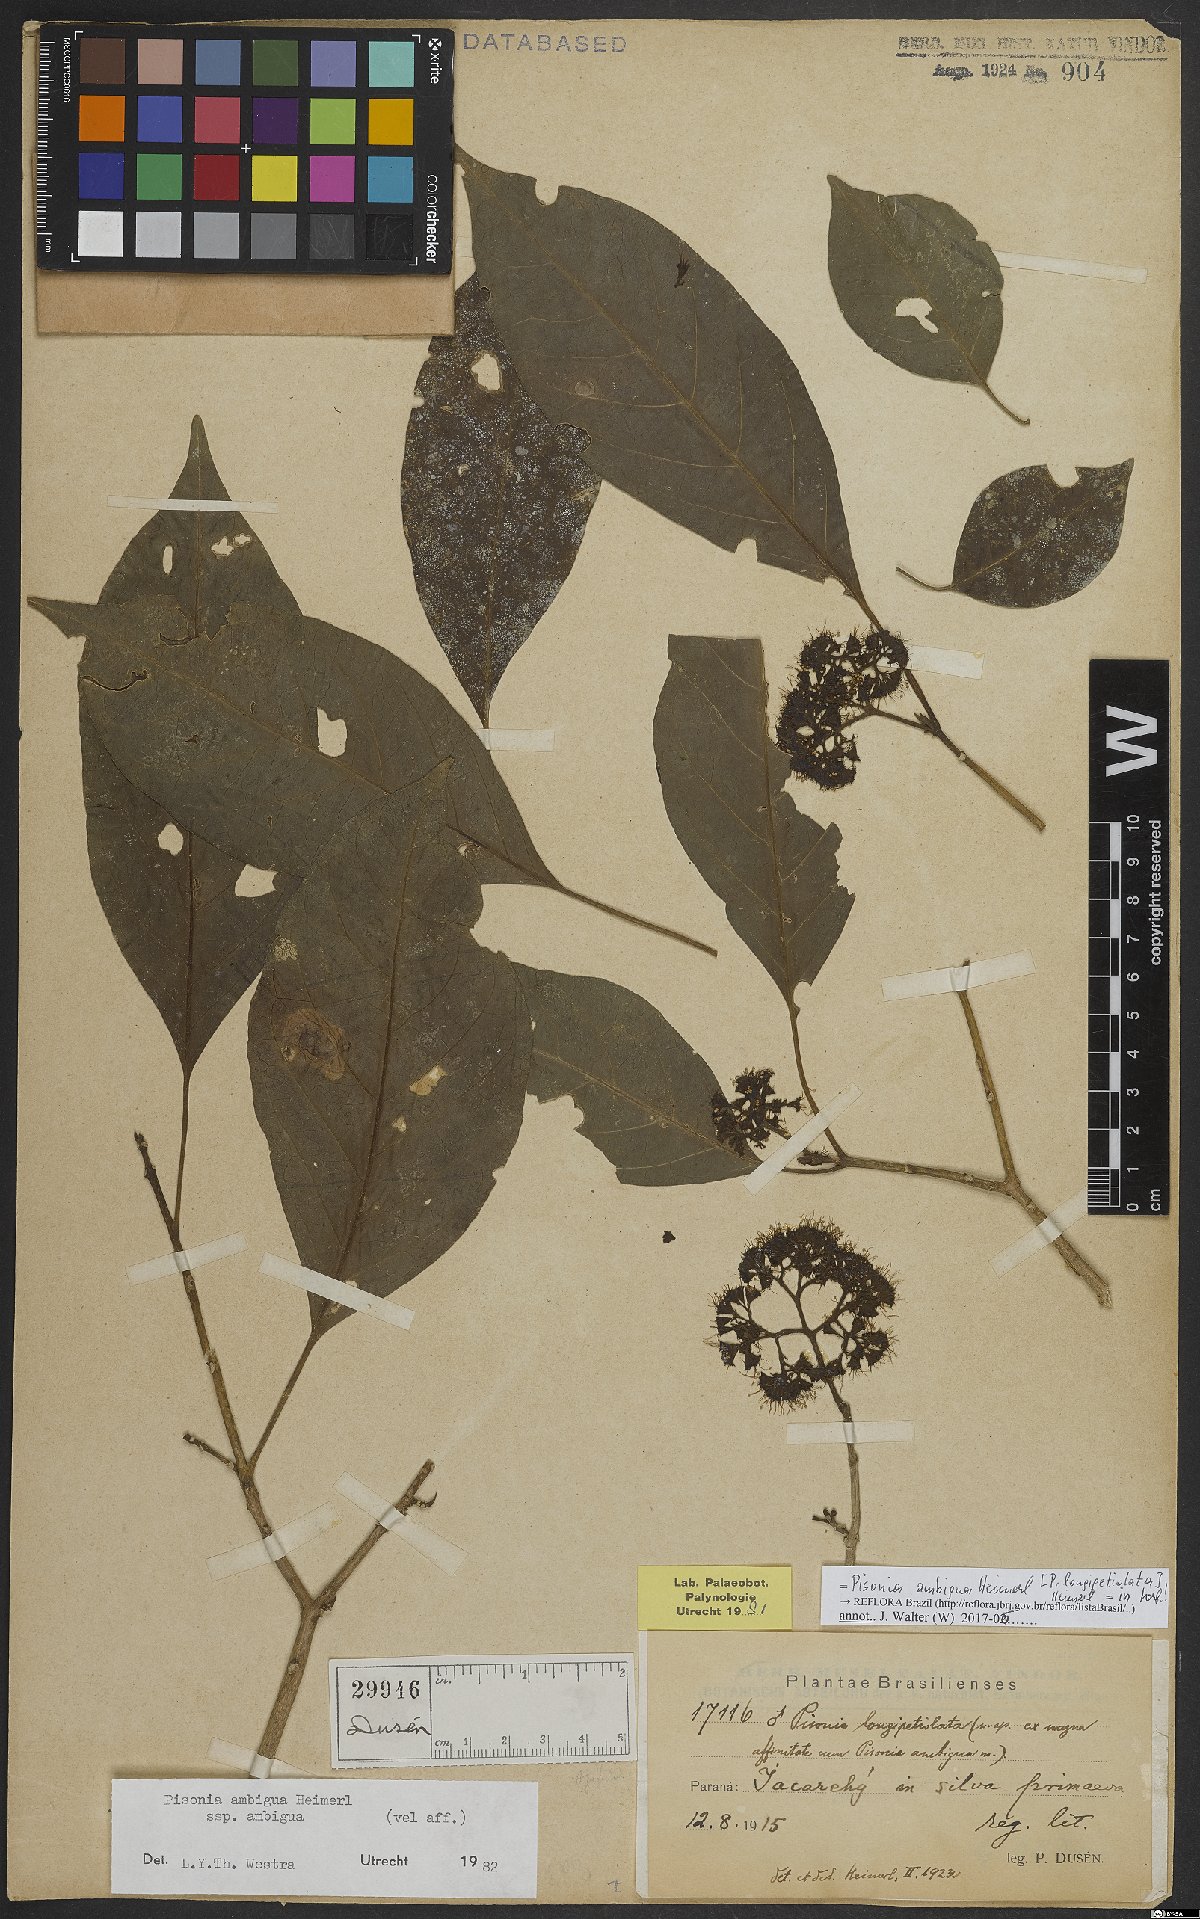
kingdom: Plantae
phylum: Tracheophyta
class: Magnoliopsida
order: Caryophyllales
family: Nyctaginaceae
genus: Pisonia
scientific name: Pisonia ambigua
